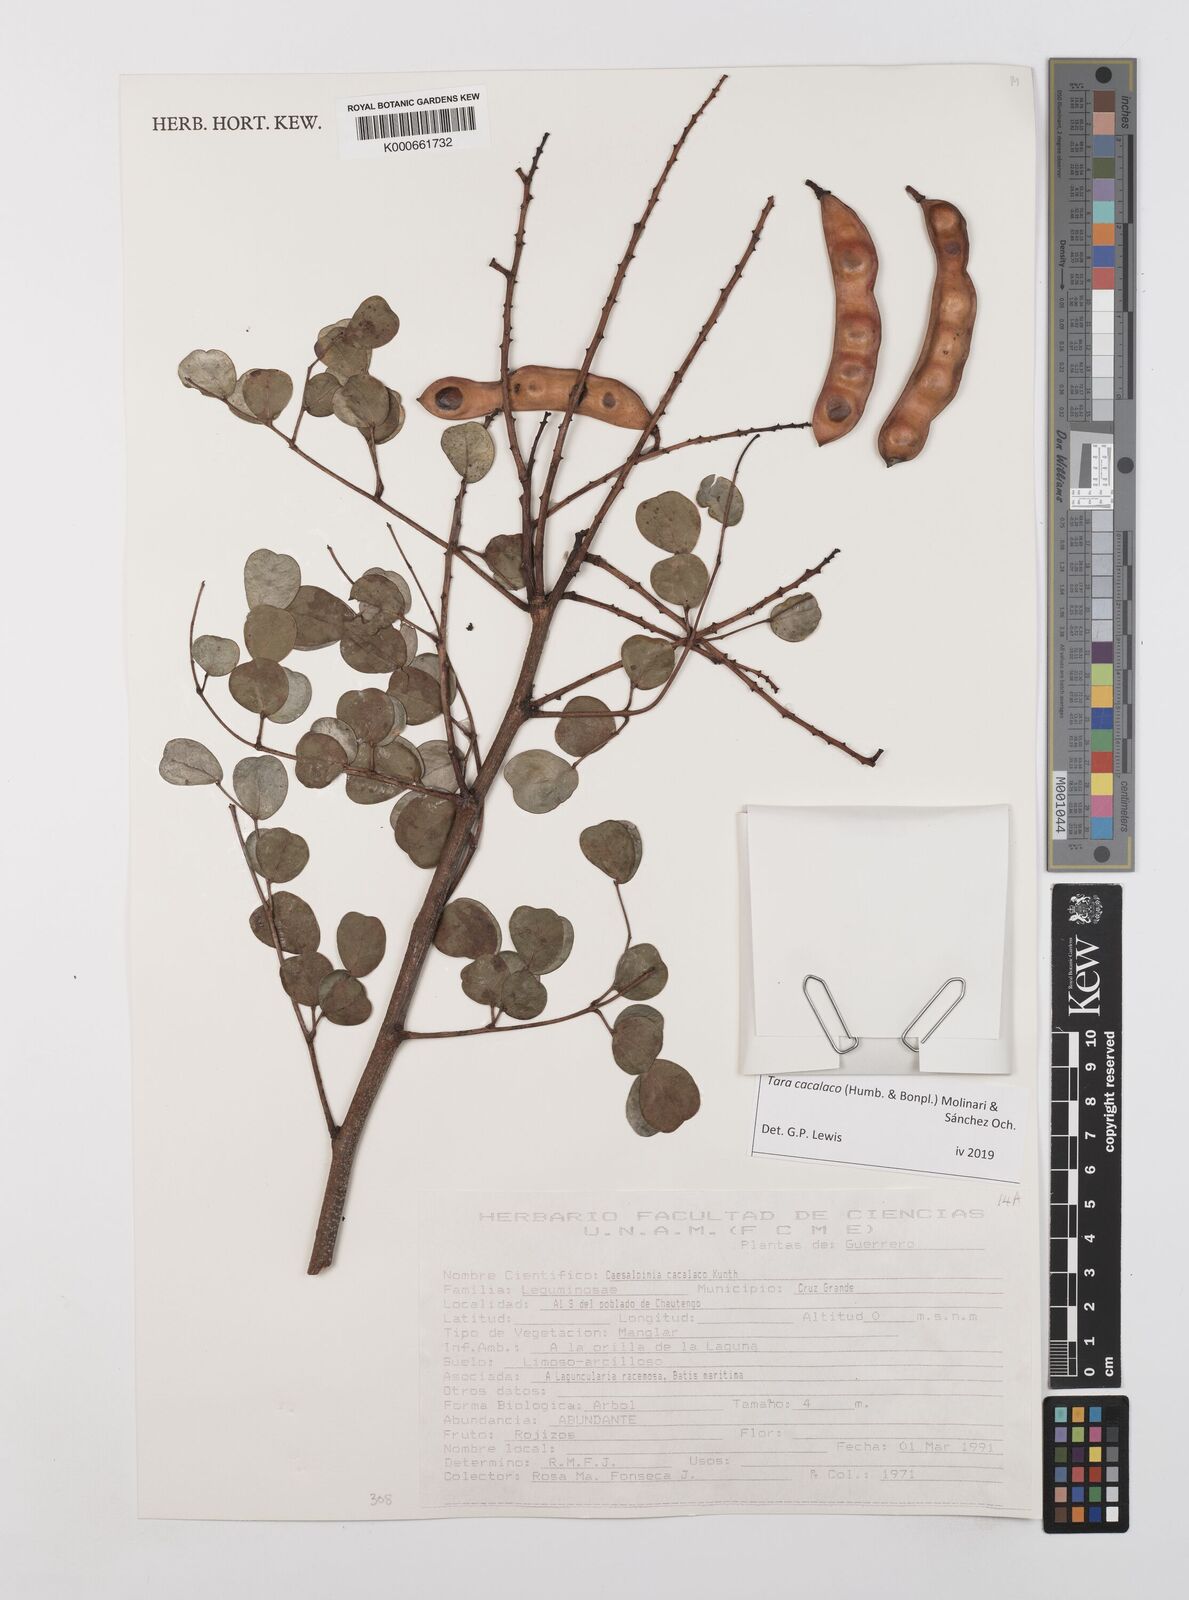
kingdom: Plantae
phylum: Tracheophyta
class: Magnoliopsida
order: Fabales
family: Fabaceae
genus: Tara
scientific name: Tara cacalaco
